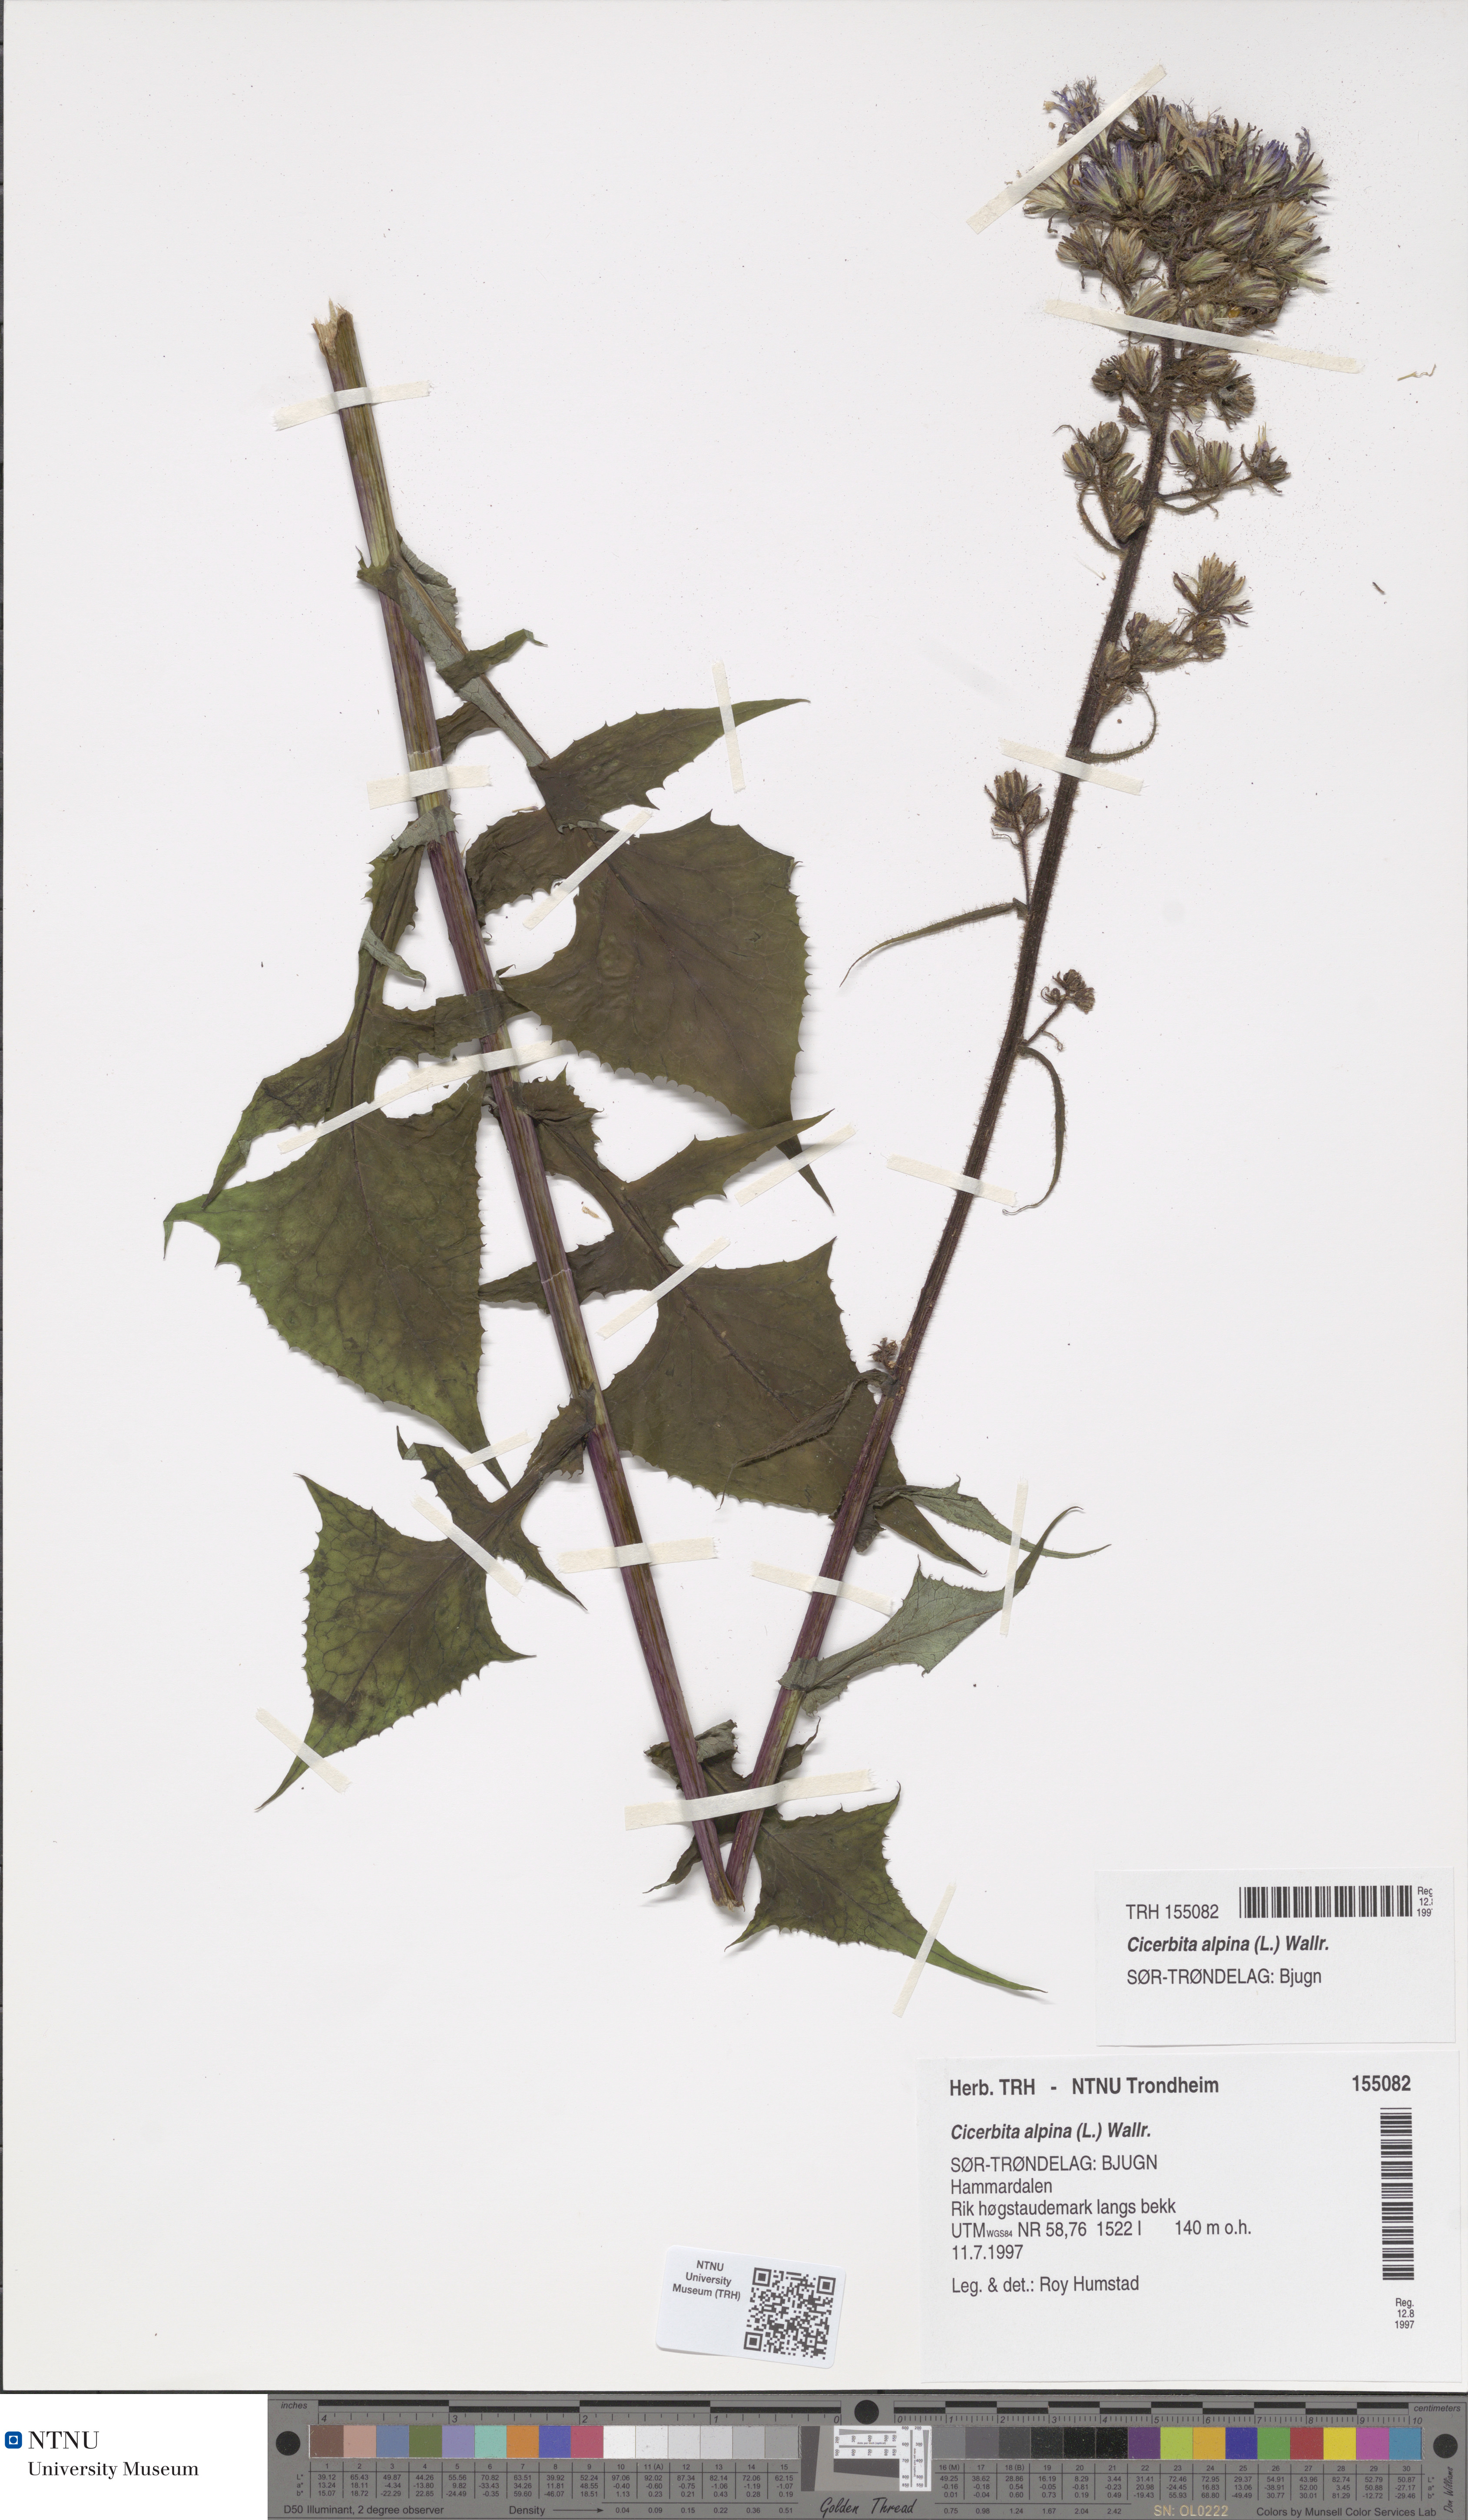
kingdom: Plantae
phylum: Tracheophyta
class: Magnoliopsida
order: Asterales
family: Asteraceae
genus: Cicerbita
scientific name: Cicerbita alpina
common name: Alpine blue-sow-thistle
